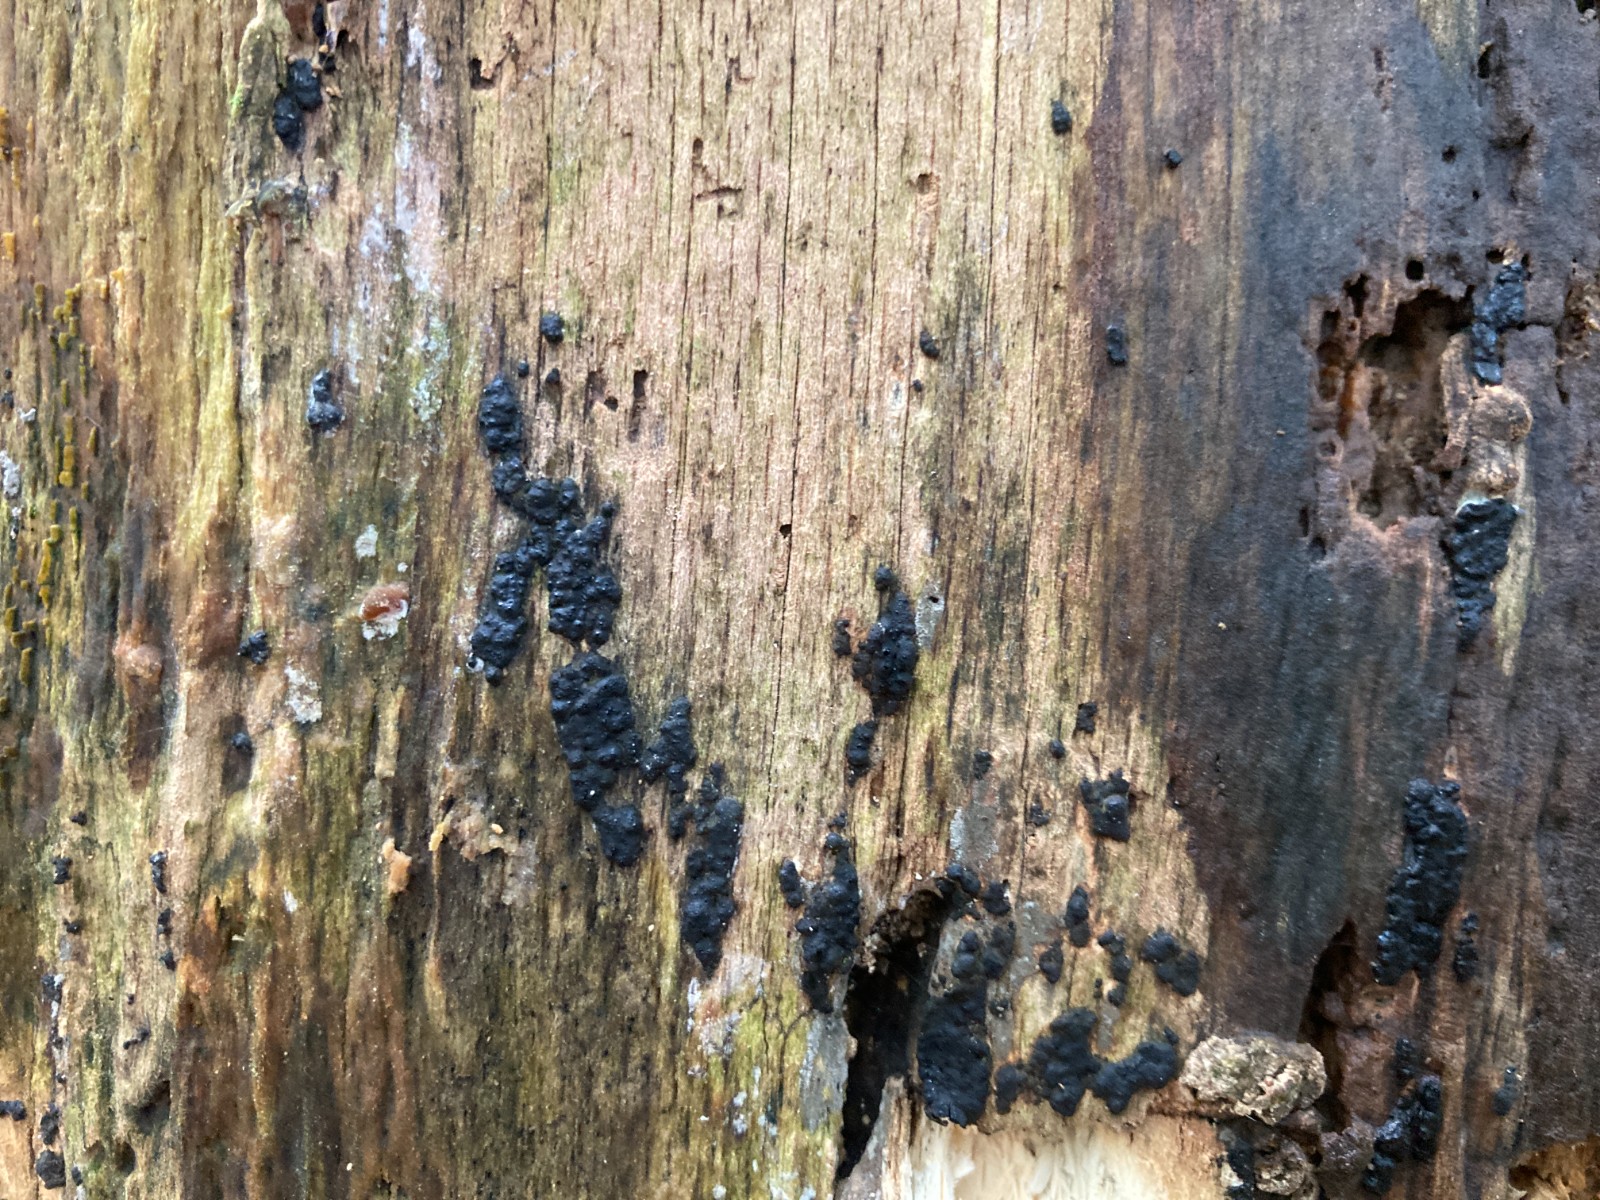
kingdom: Fungi
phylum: Ascomycota
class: Sordariomycetes
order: Xylariales
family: Xylariaceae
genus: Nemania
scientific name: Nemania serpens
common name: almindelig kuldyne
